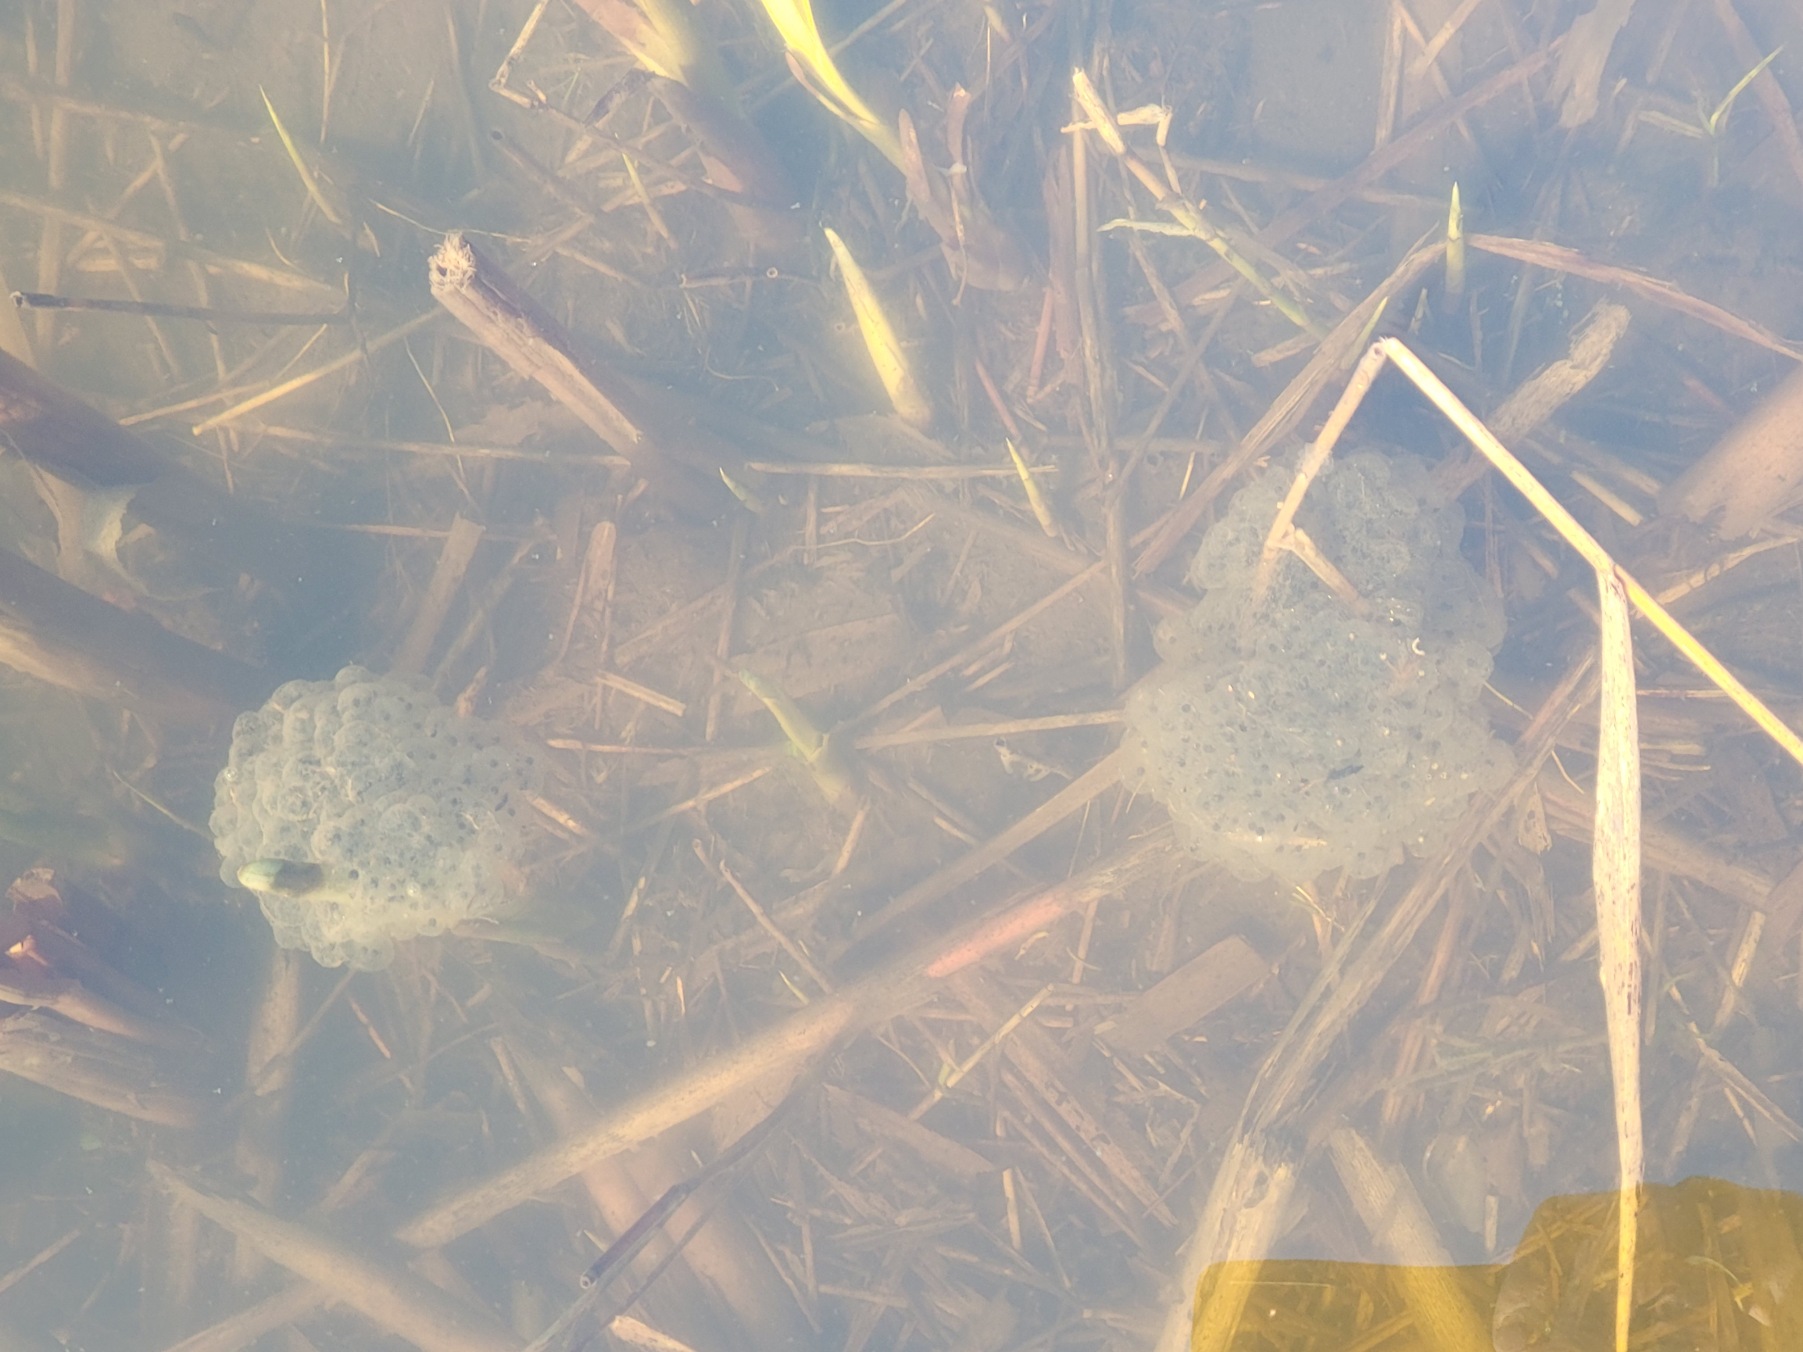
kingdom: Animalia
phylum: Chordata
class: Amphibia
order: Anura
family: Ranidae
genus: Rana
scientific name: Rana dalmatina
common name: Springfrø
